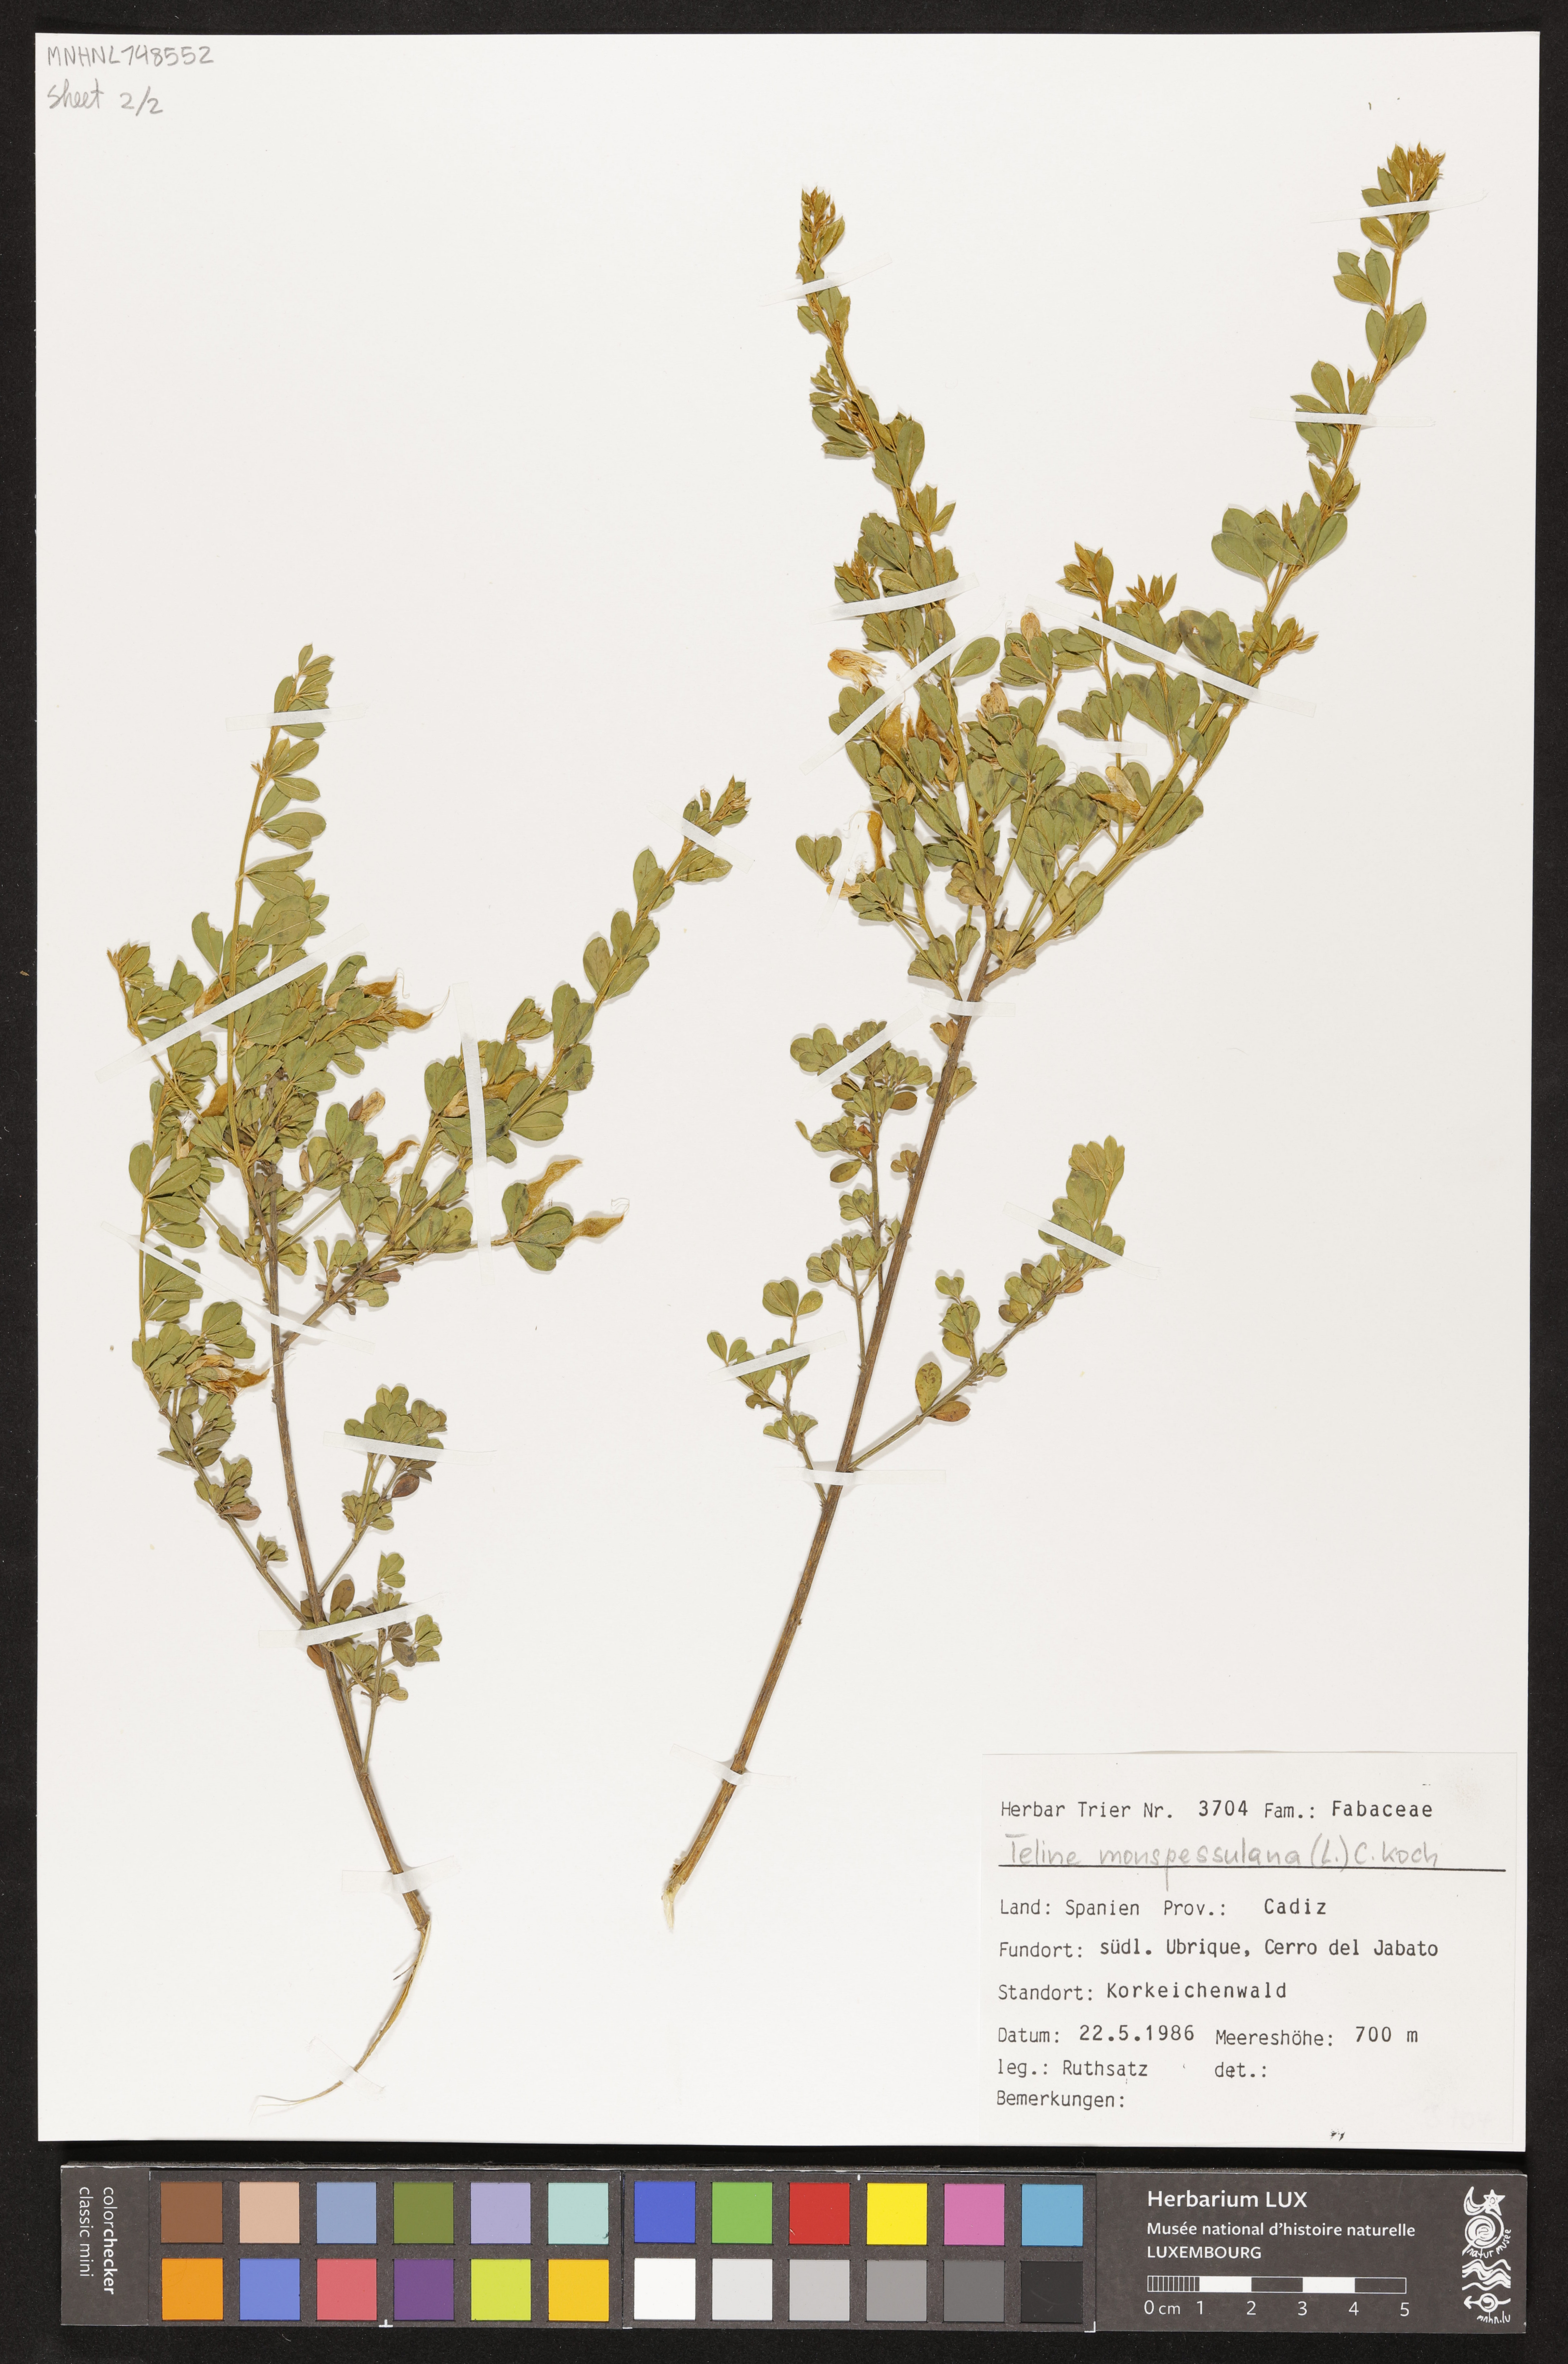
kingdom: Plantae
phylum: Tracheophyta
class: Magnoliopsida
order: Fabales
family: Fabaceae
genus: Genista
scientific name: Genista monspessulana
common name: Montpellier broom
